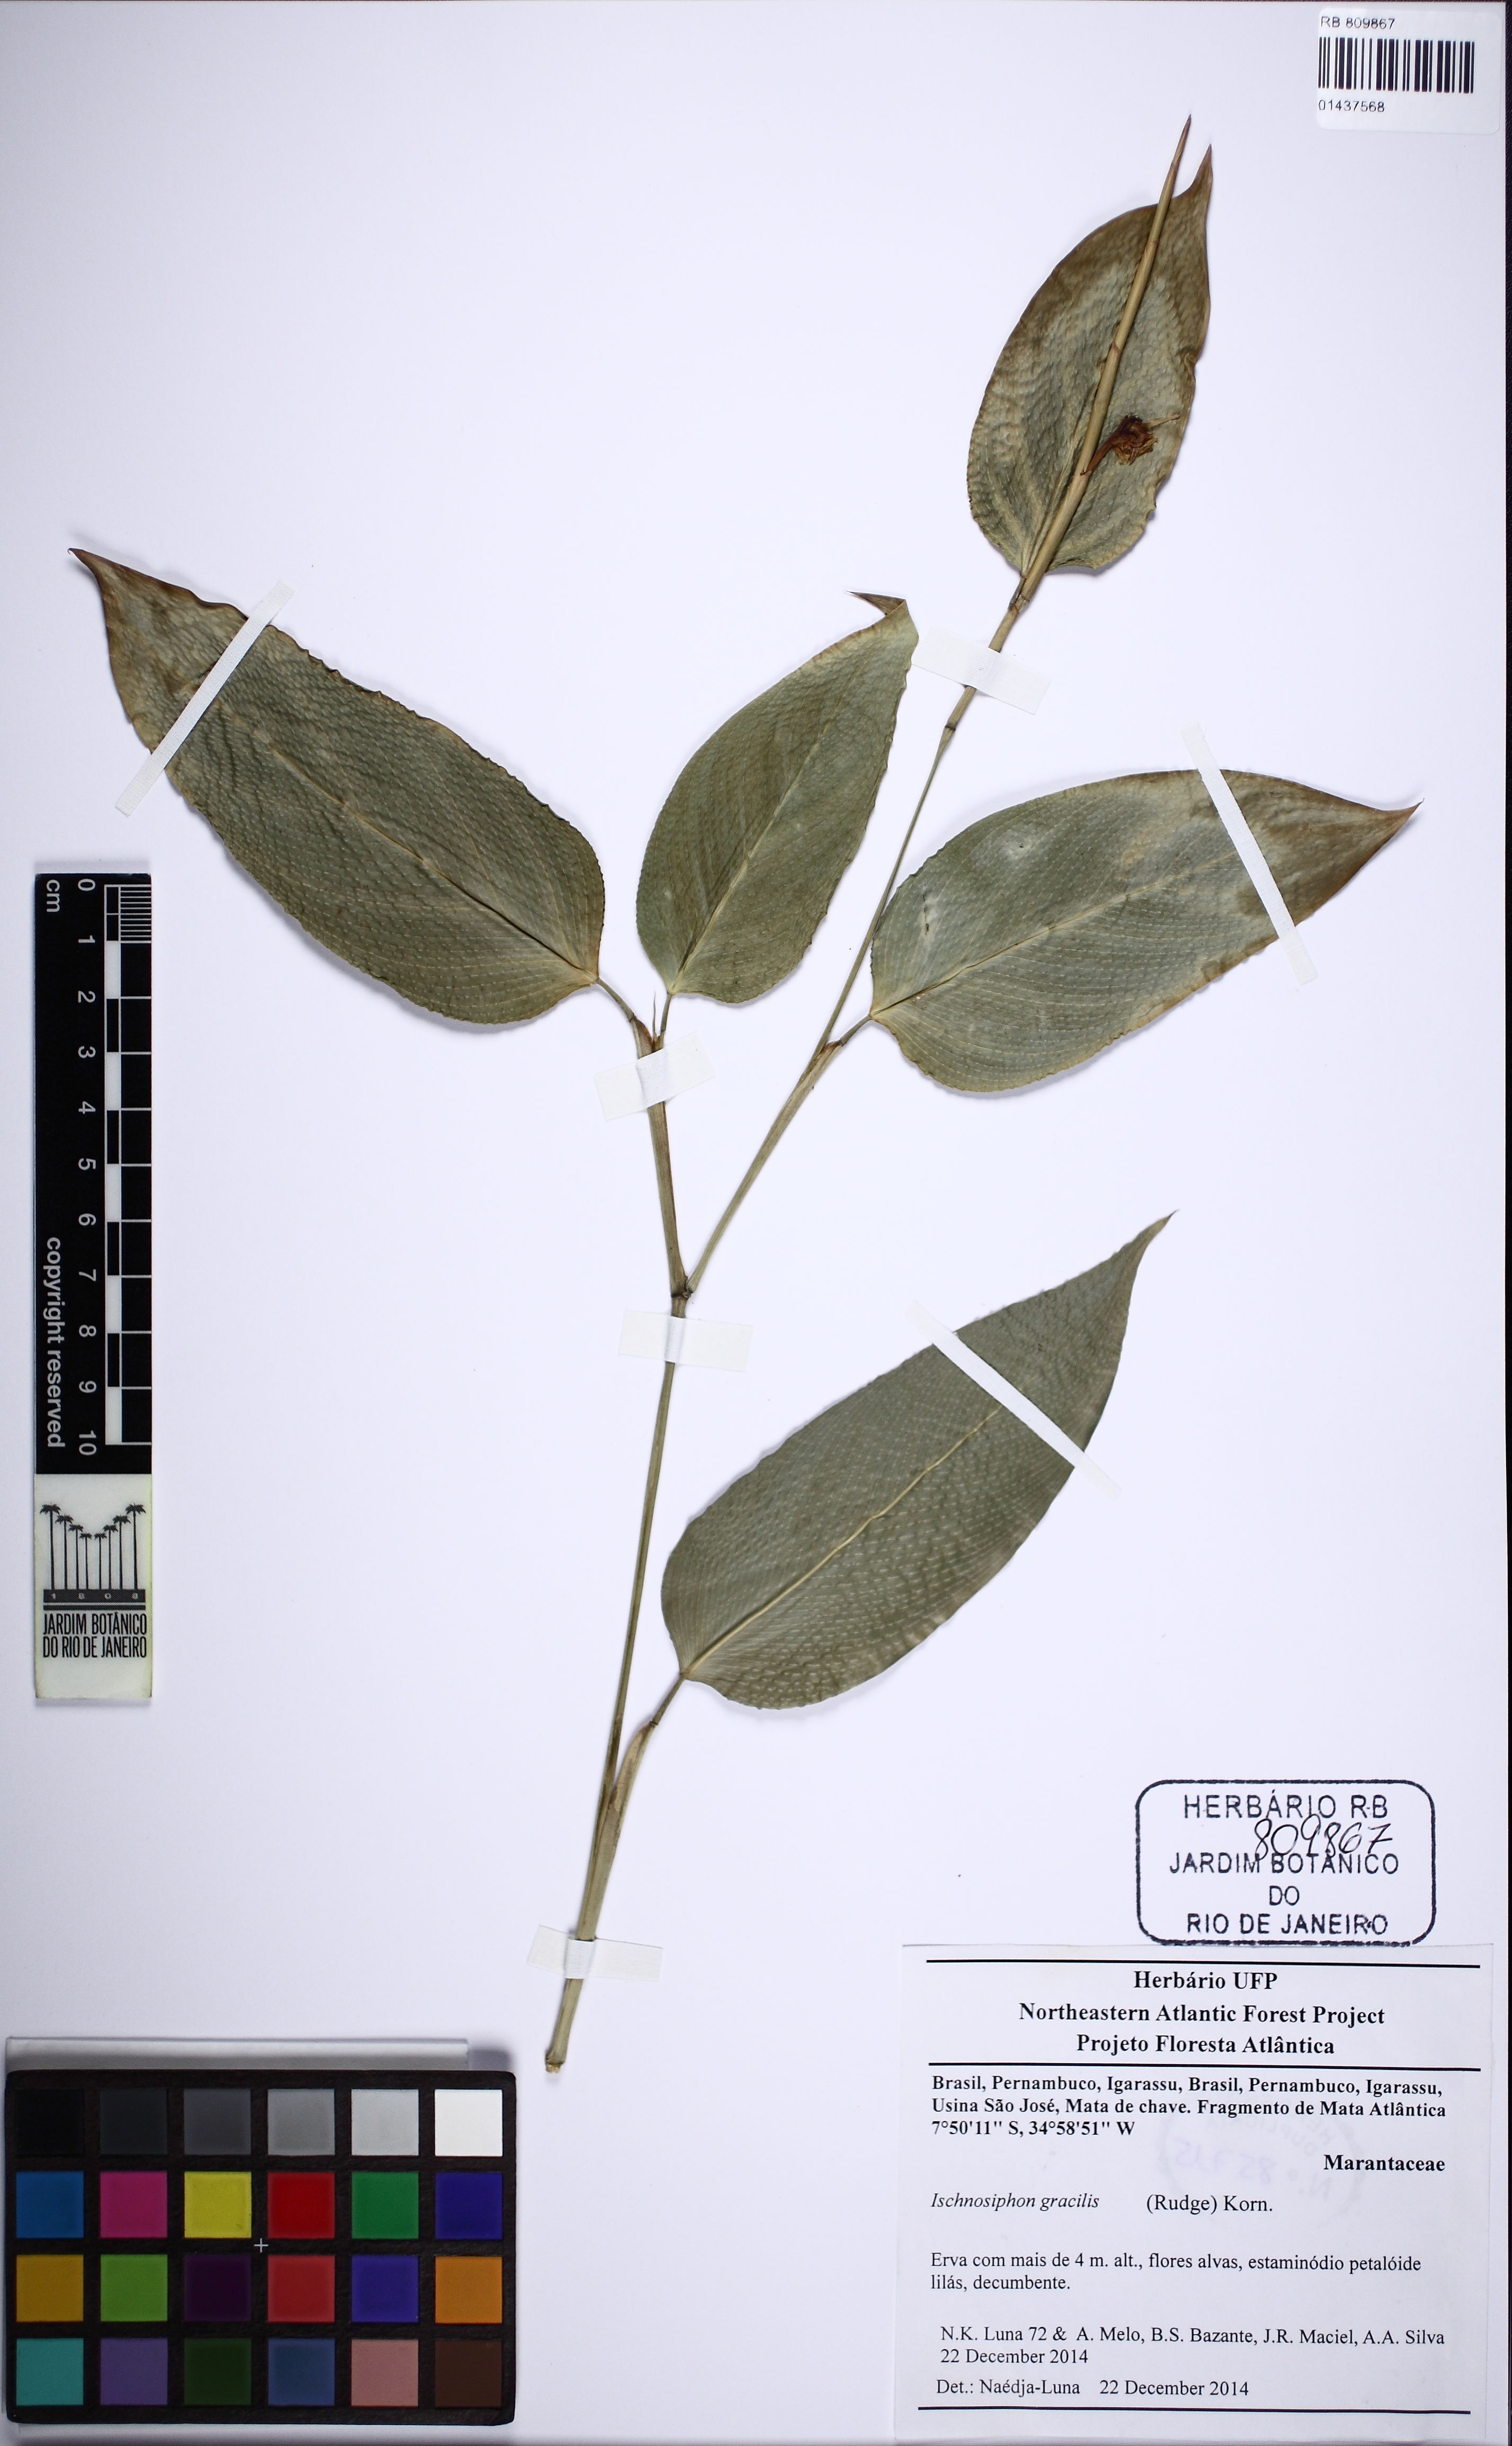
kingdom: Plantae
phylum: Tracheophyta
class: Liliopsida
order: Zingiberales
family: Marantaceae
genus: Ischnosiphon
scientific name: Ischnosiphon gracilis
